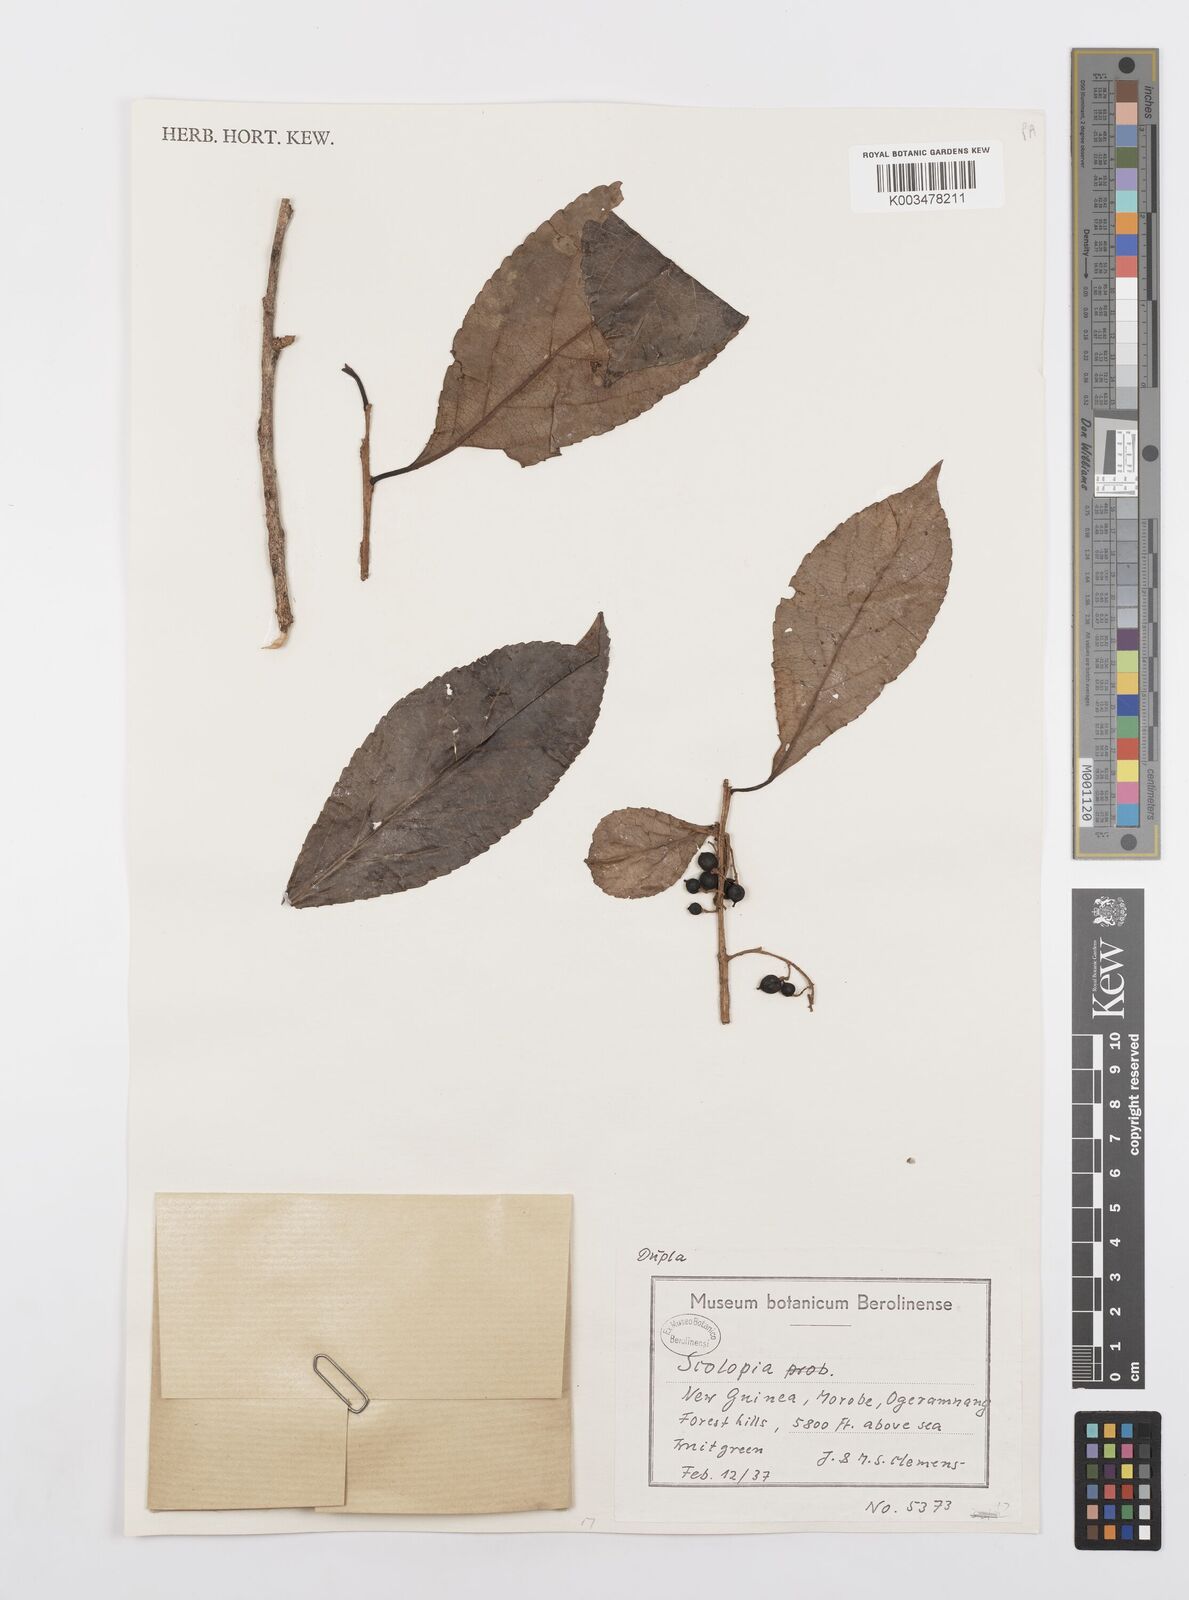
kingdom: Plantae
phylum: Tracheophyta
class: Magnoliopsida
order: Malpighiales
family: Salicaceae
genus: Scolopia
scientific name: Scolopia
